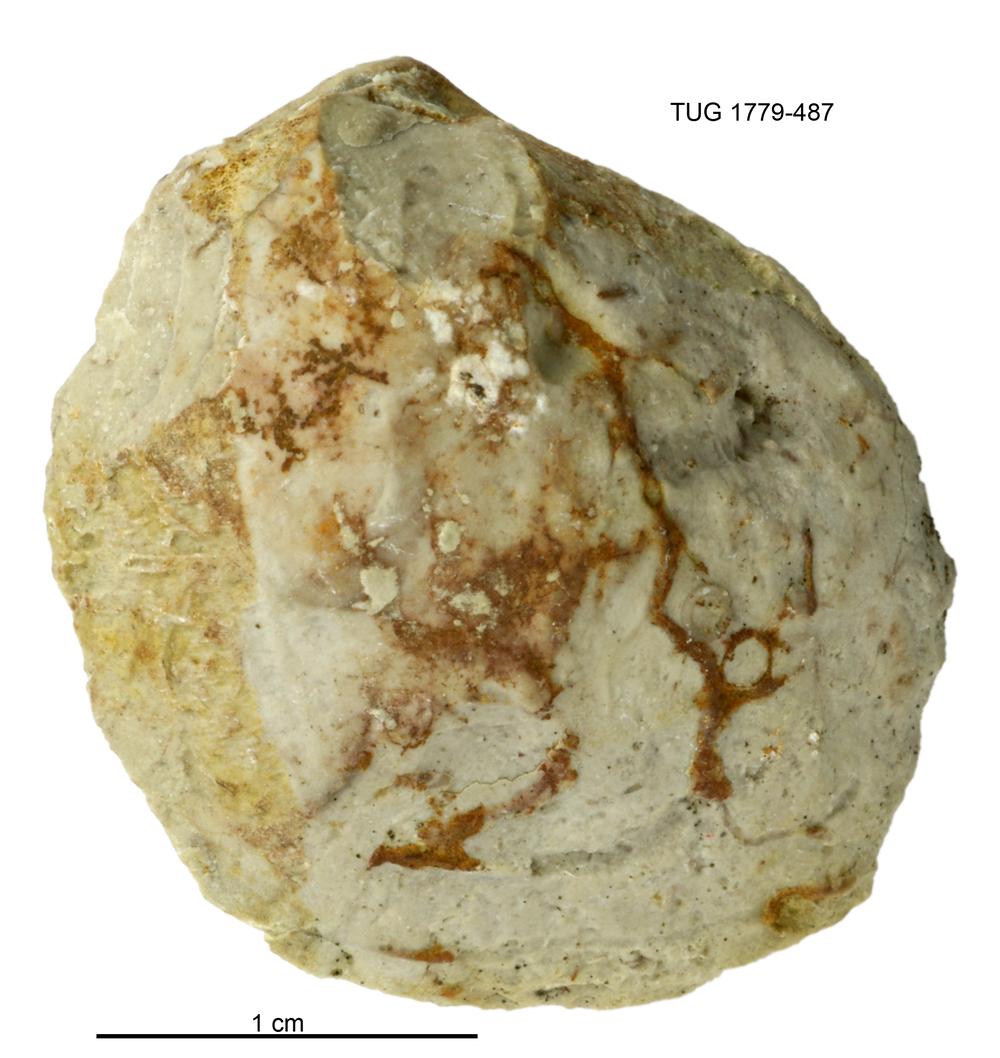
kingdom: Animalia
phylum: Mollusca
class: Bivalvia
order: Modiomorphida
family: Modiomorphidae
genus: Modiolopsis
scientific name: Modiolopsis
